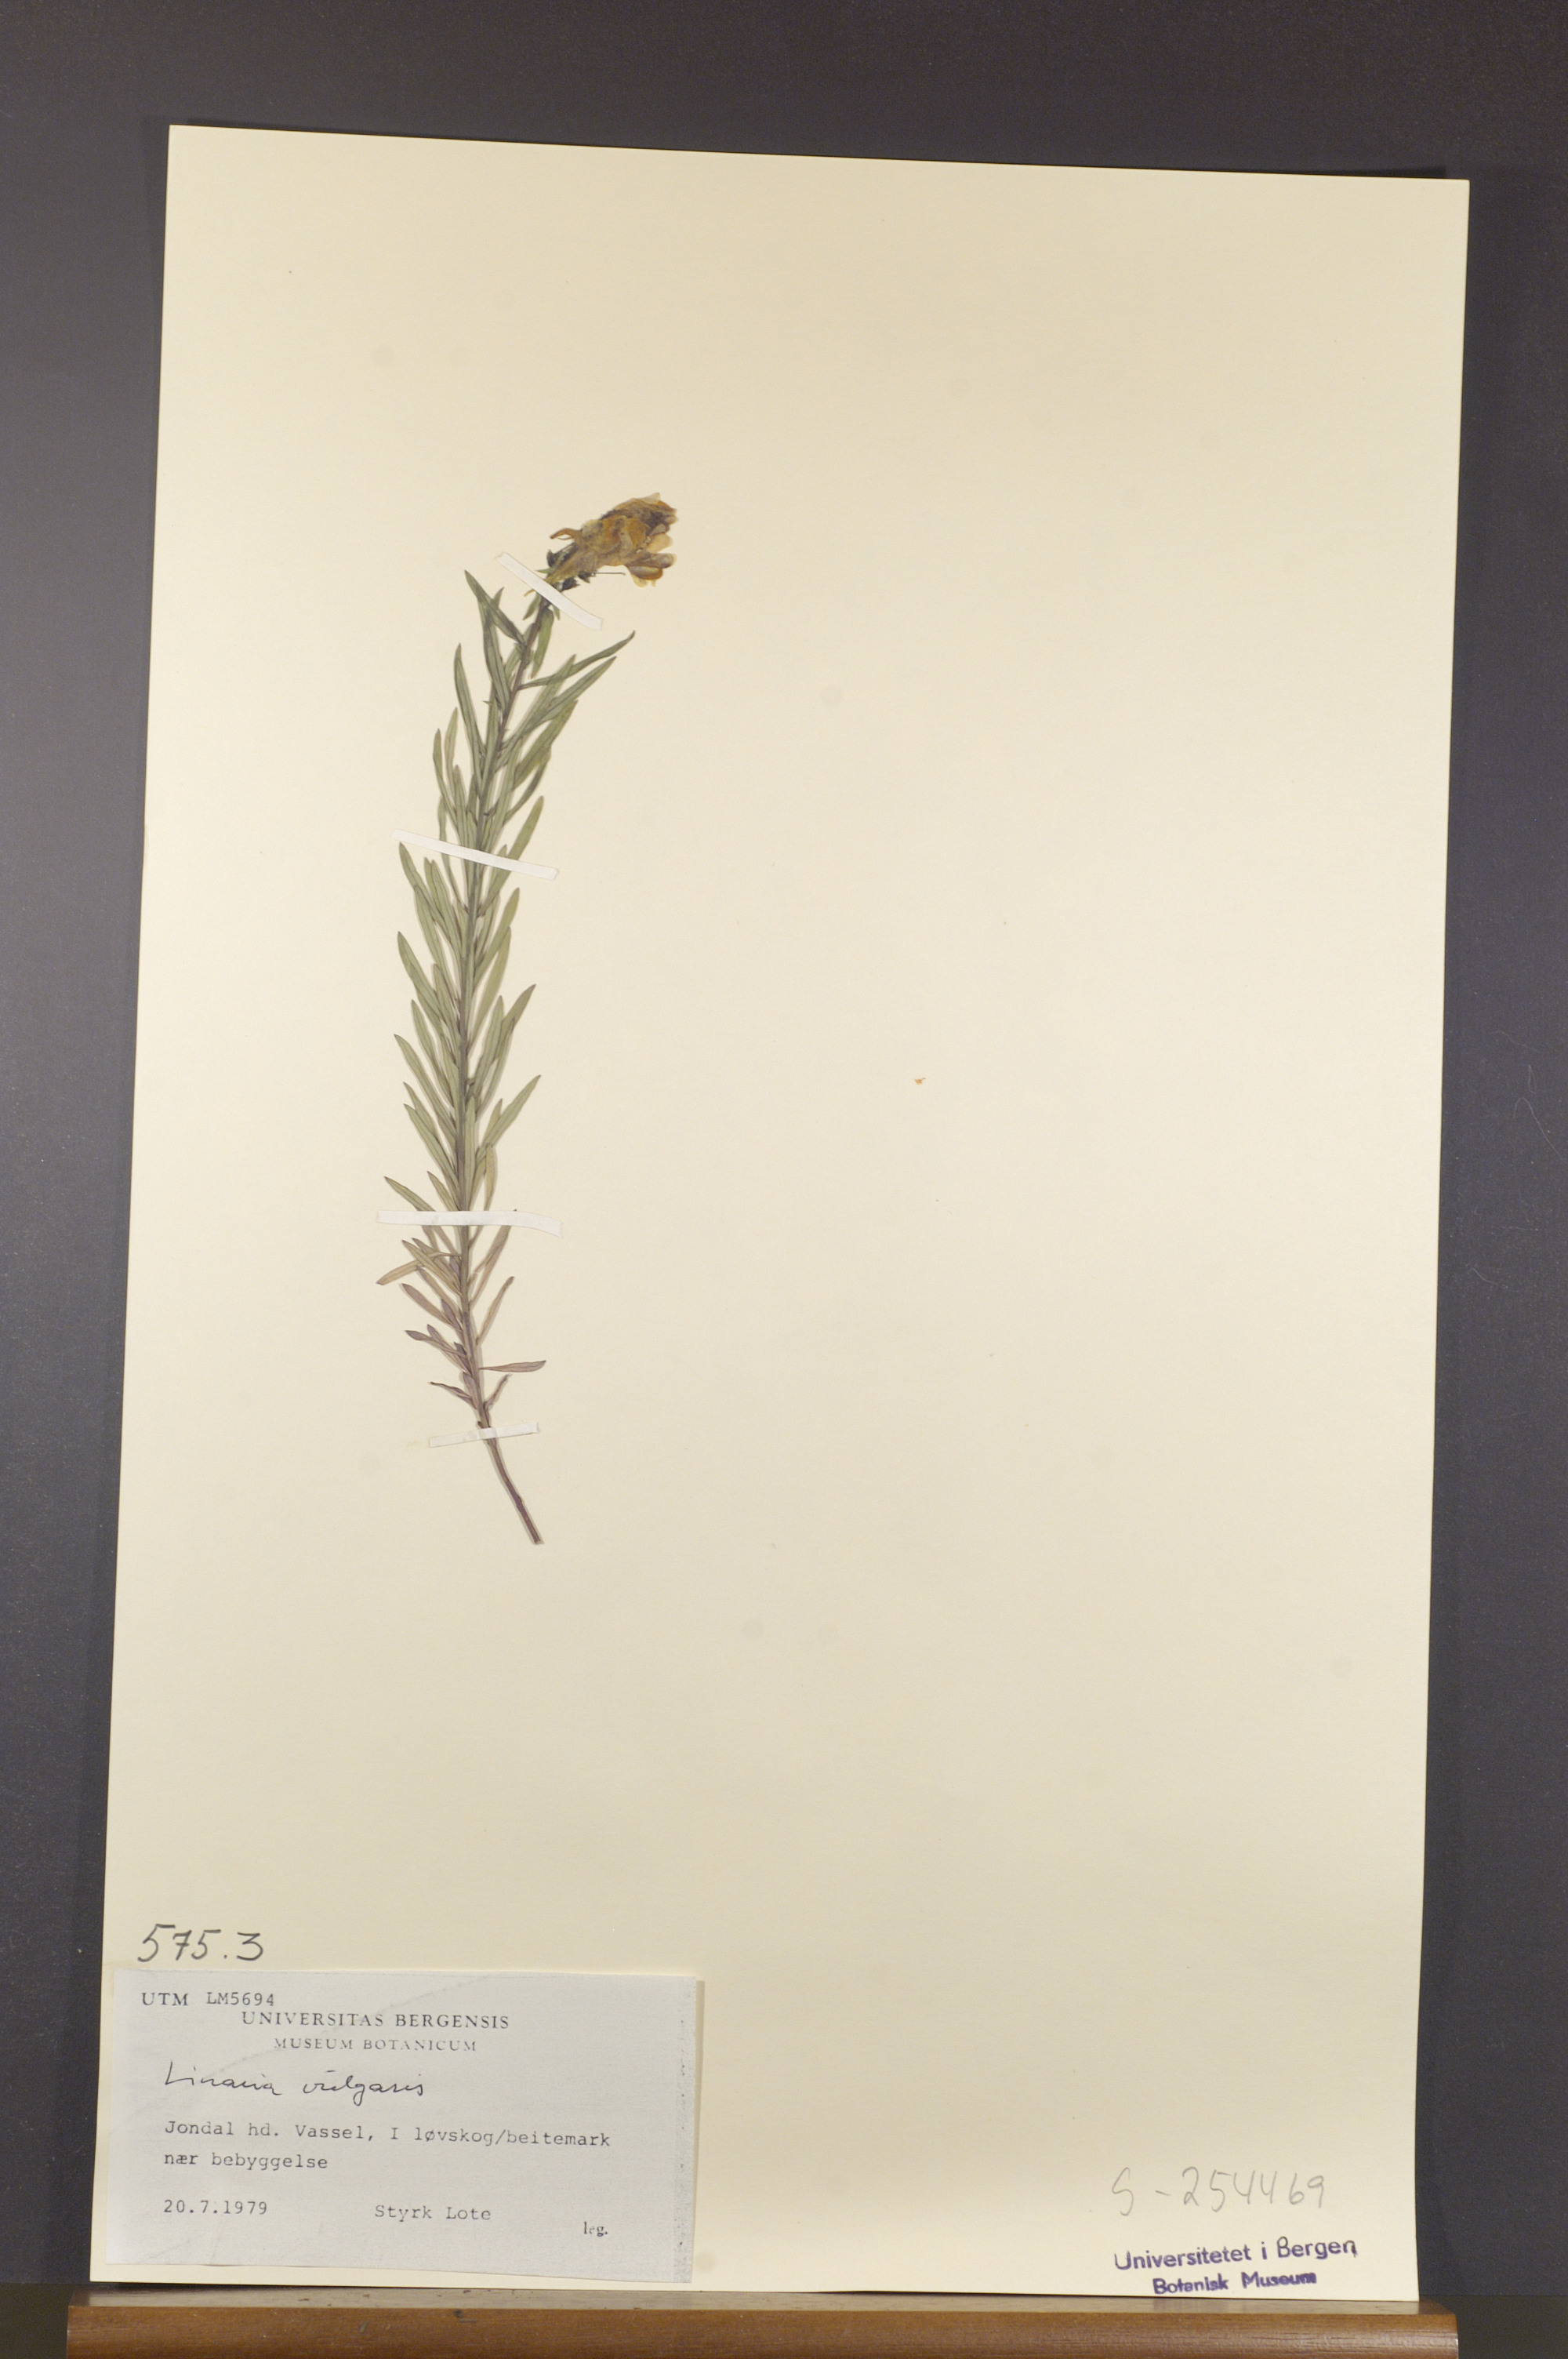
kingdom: Plantae
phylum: Tracheophyta
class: Magnoliopsida
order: Lamiales
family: Plantaginaceae
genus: Linaria
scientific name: Linaria vulgaris
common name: Butter and eggs
